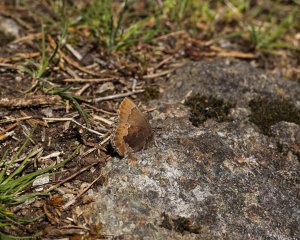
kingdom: Animalia
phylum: Arthropoda
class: Insecta
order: Lepidoptera
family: Lycaenidae
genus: Callophrys
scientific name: Callophrys mossii
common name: Moss' Elfin
